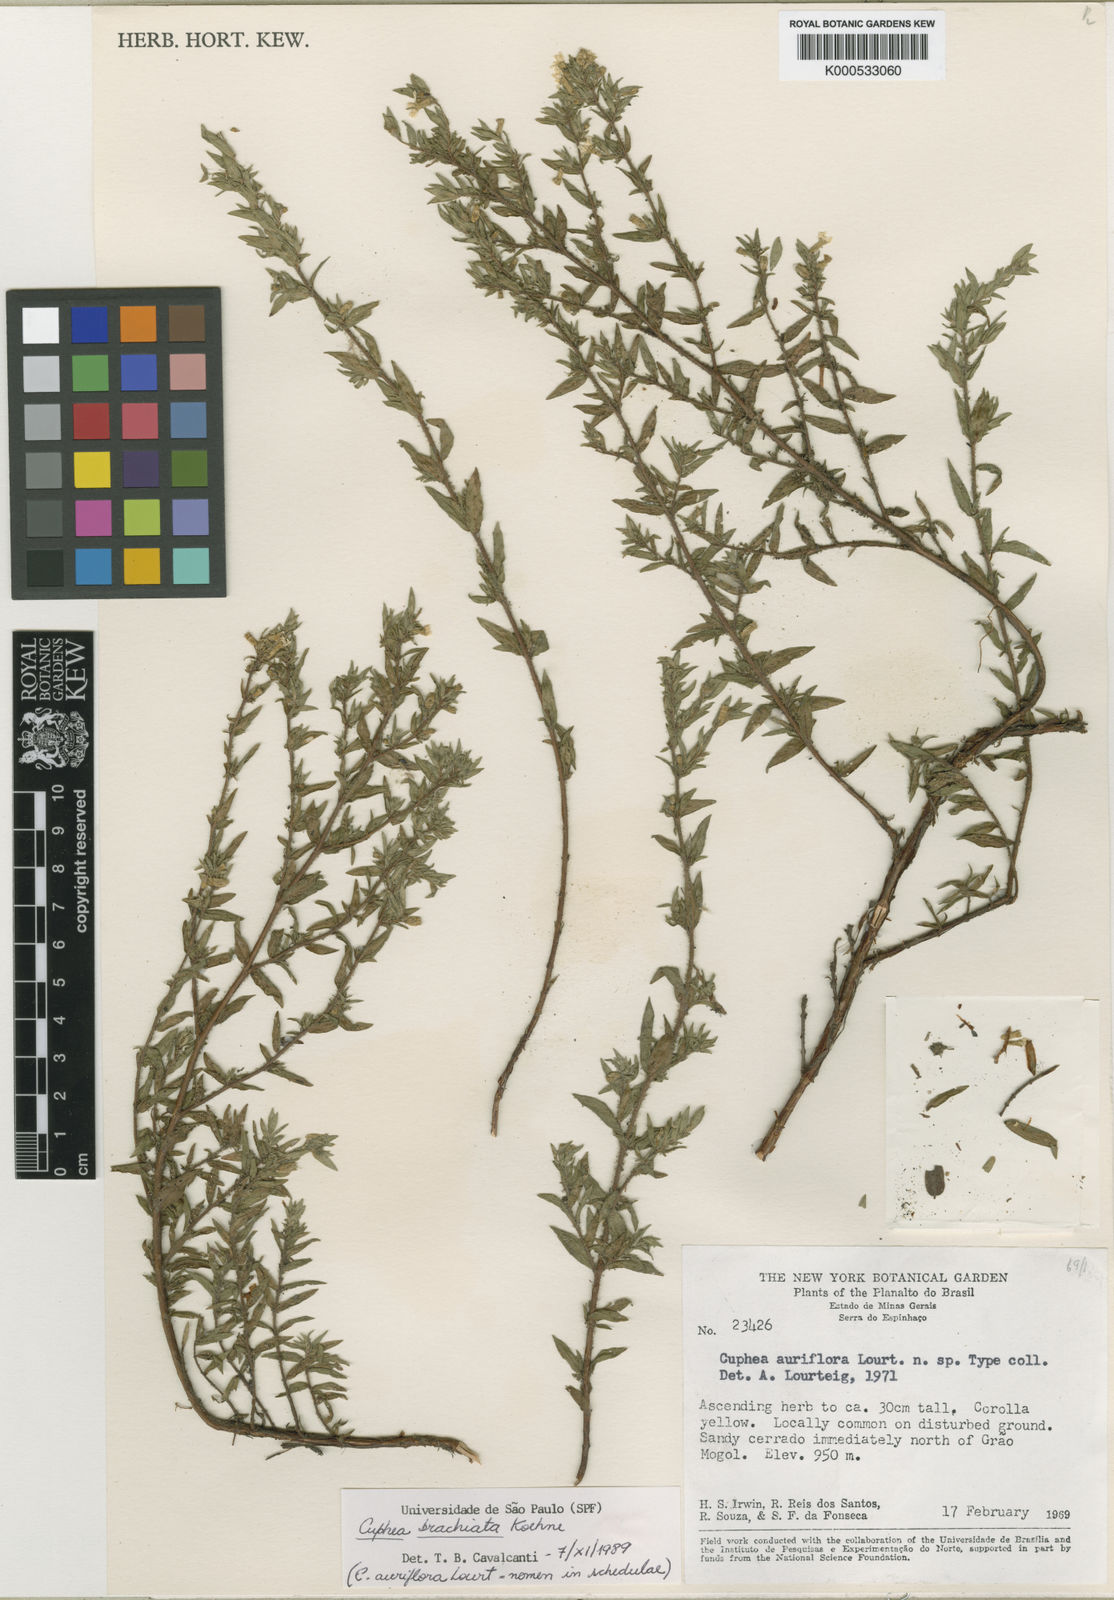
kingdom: Plantae
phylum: Tracheophyta
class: Magnoliopsida
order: Myrtales
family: Lythraceae
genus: Cuphea
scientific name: Cuphea brachiata
